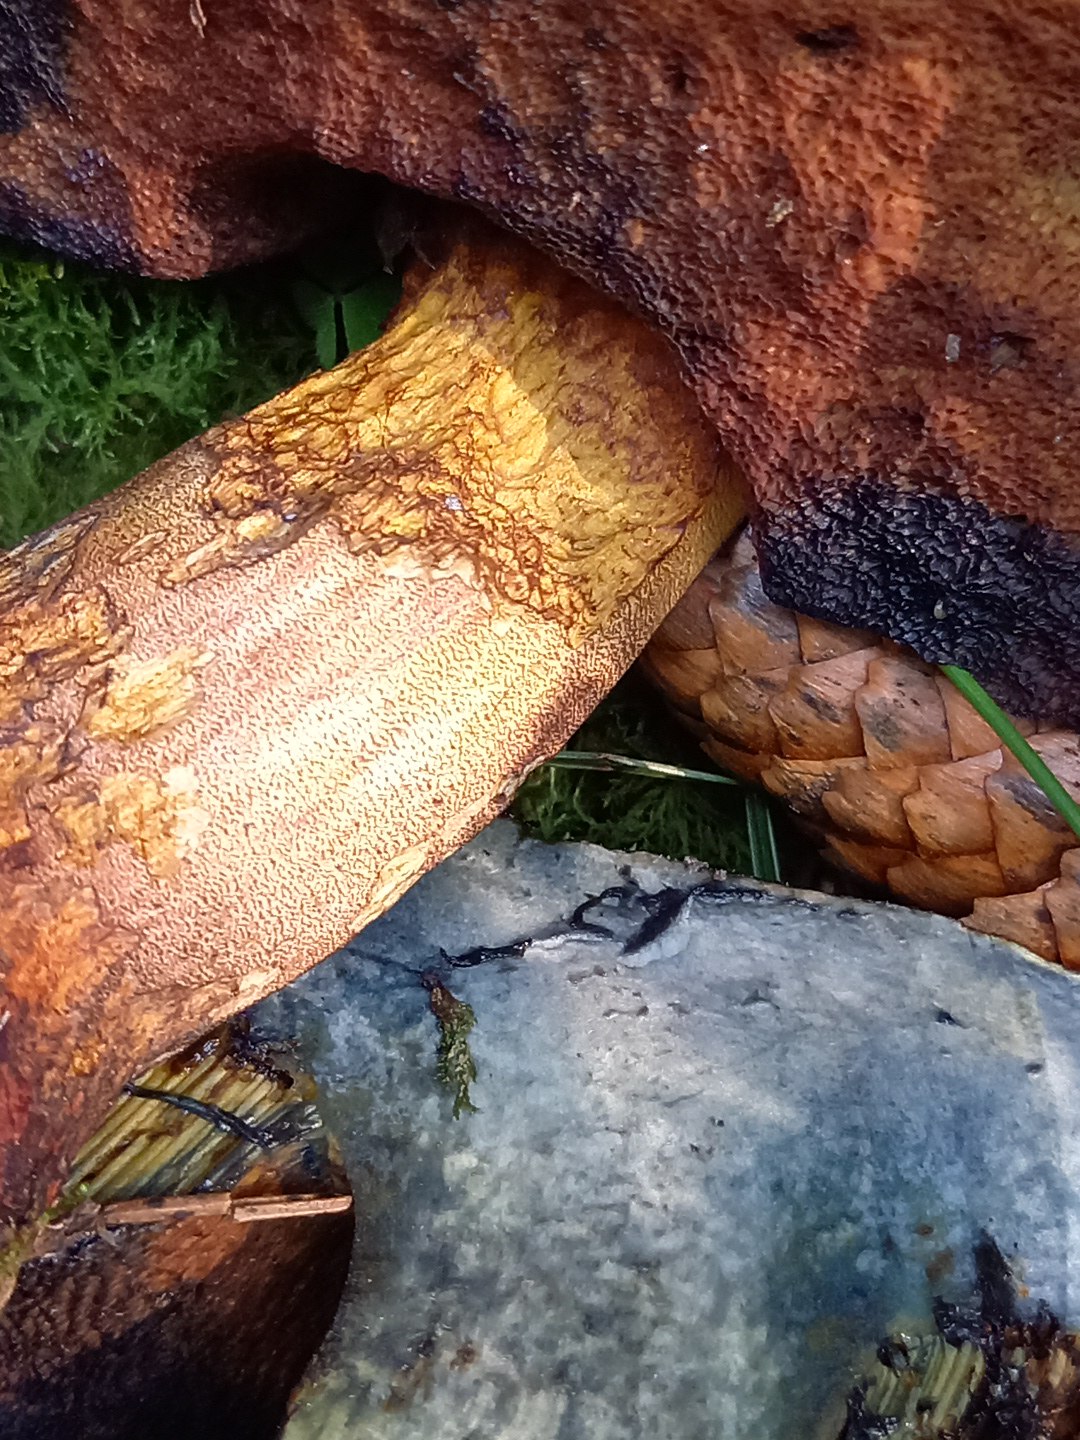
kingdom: Fungi
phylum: Basidiomycota
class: Agaricomycetes
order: Boletales
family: Boletaceae
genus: Neoboletus
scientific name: Neoboletus erythropus
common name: punktstokket indigorørhat
